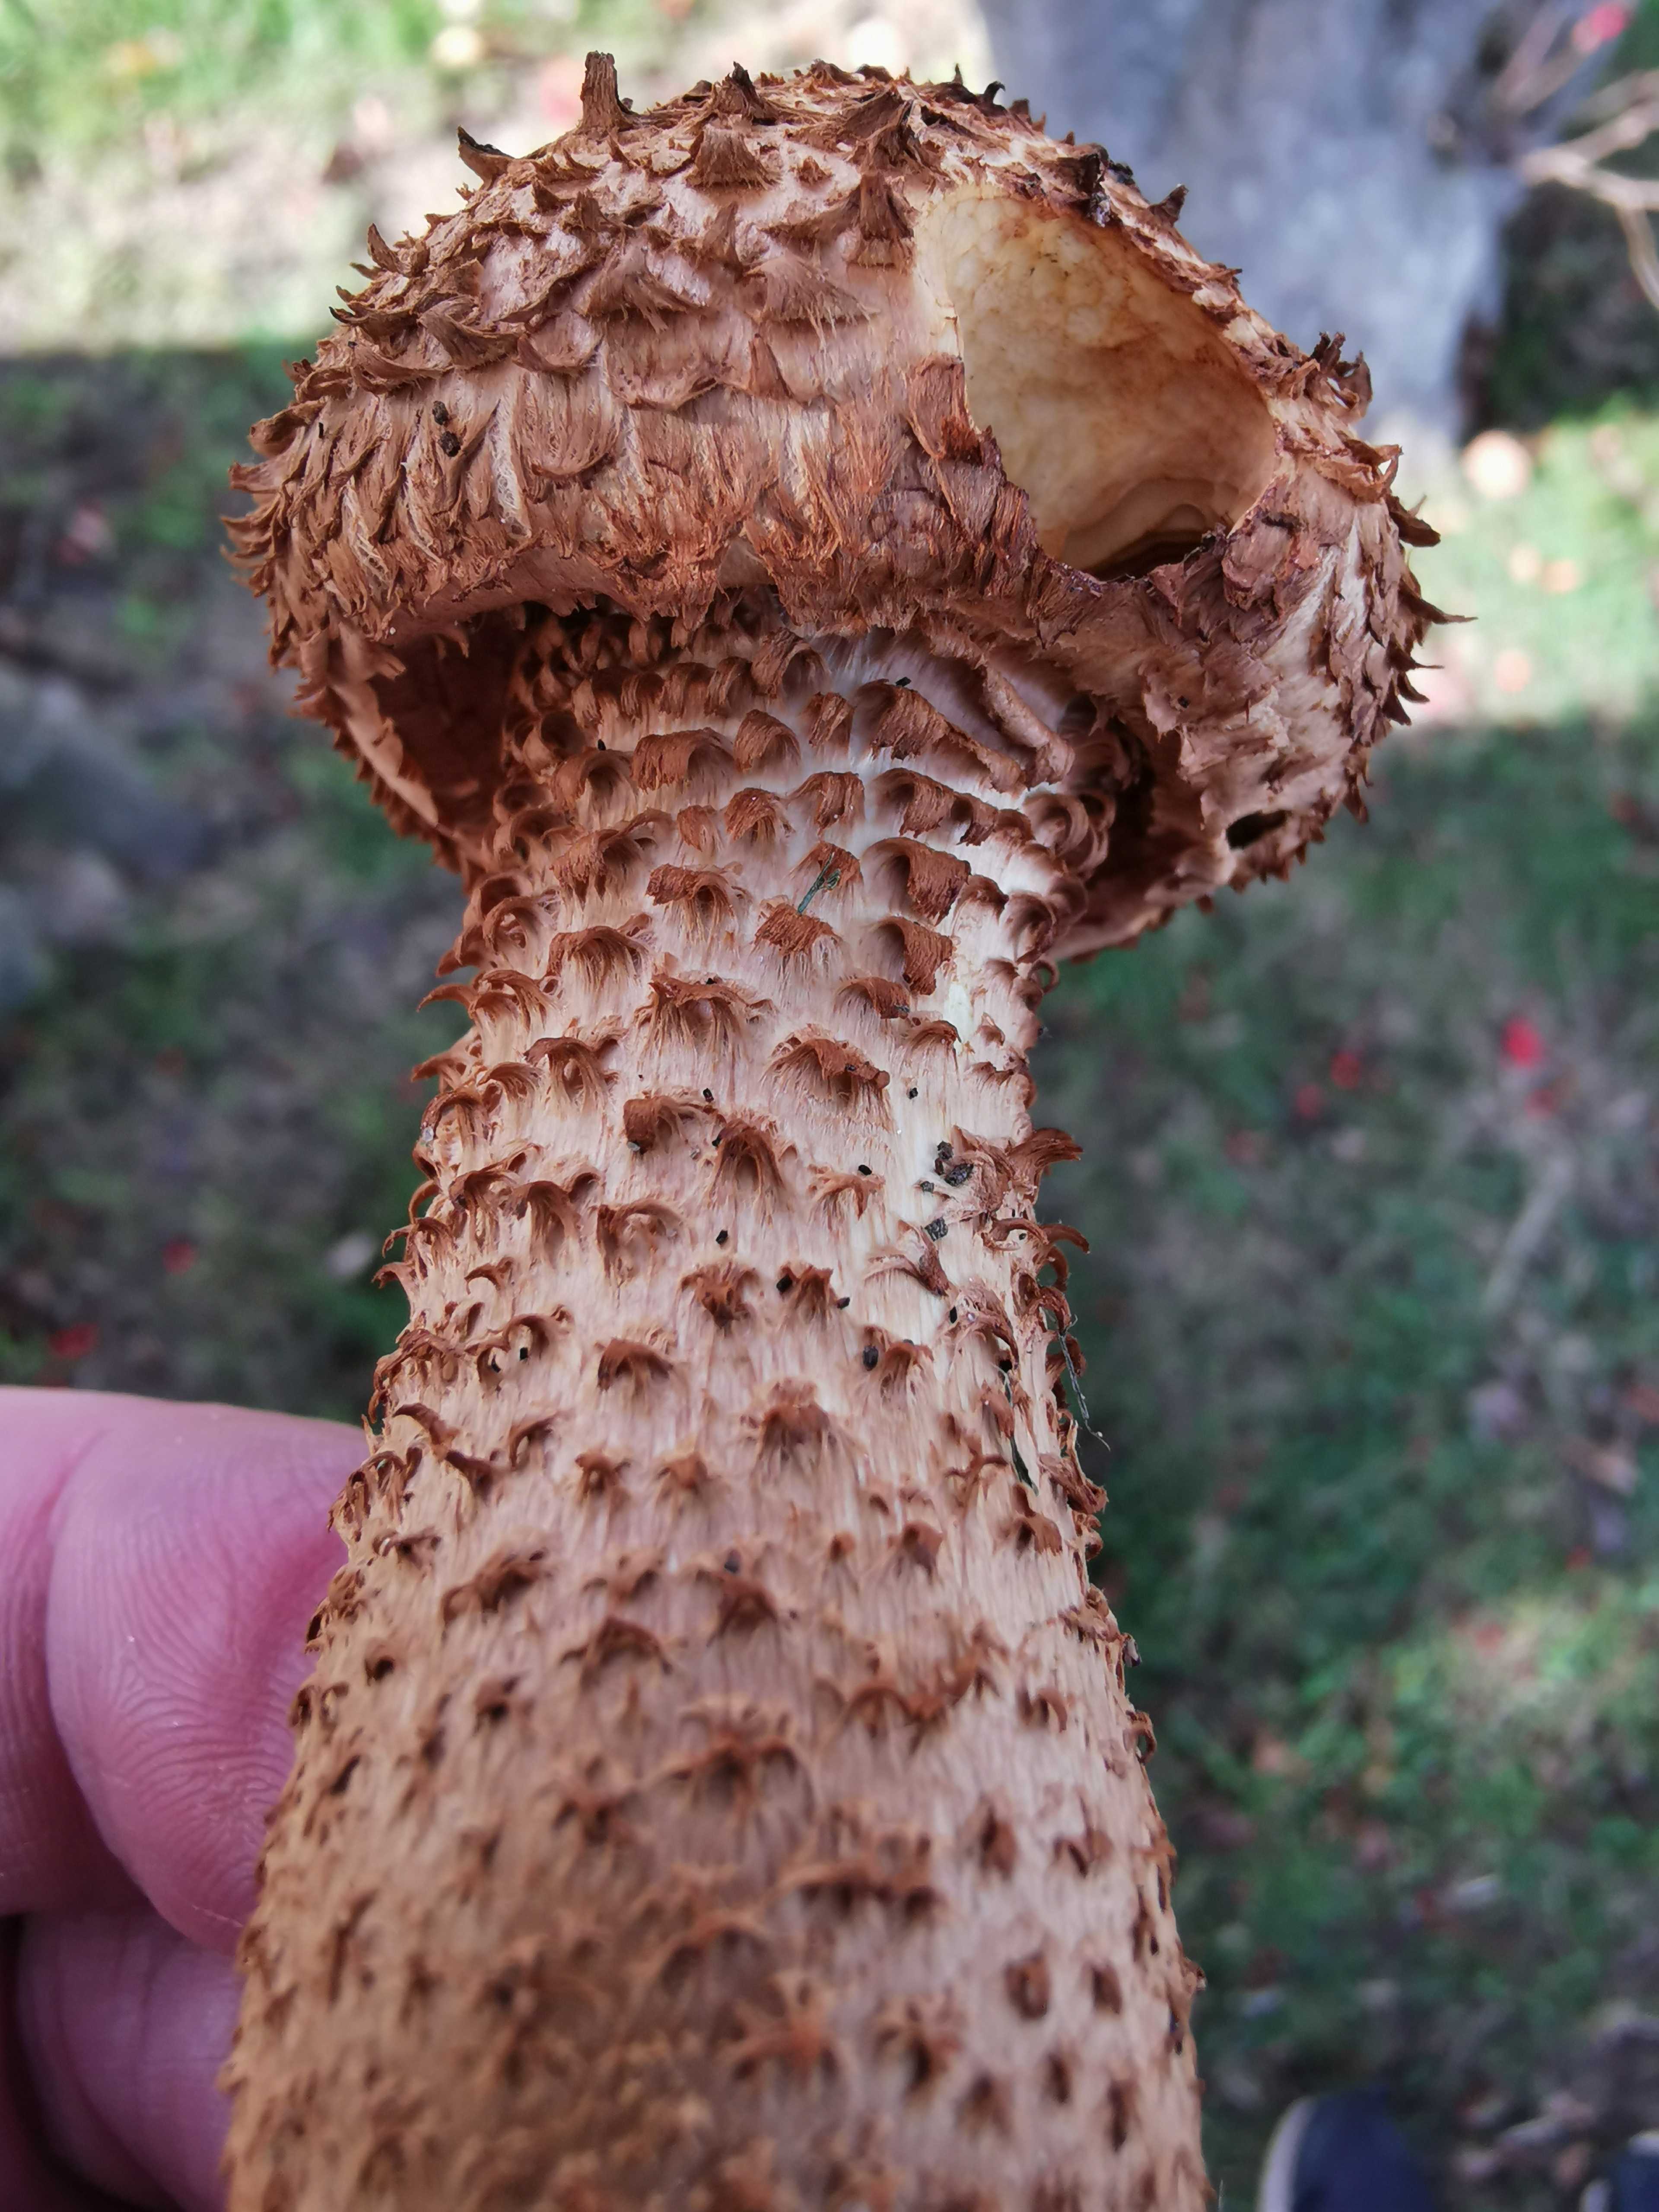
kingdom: Fungi
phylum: Basidiomycota
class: Agaricomycetes
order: Agaricales
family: Strophariaceae
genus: Pholiota
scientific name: Pholiota squarrosa
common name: krumskællet skælhat
